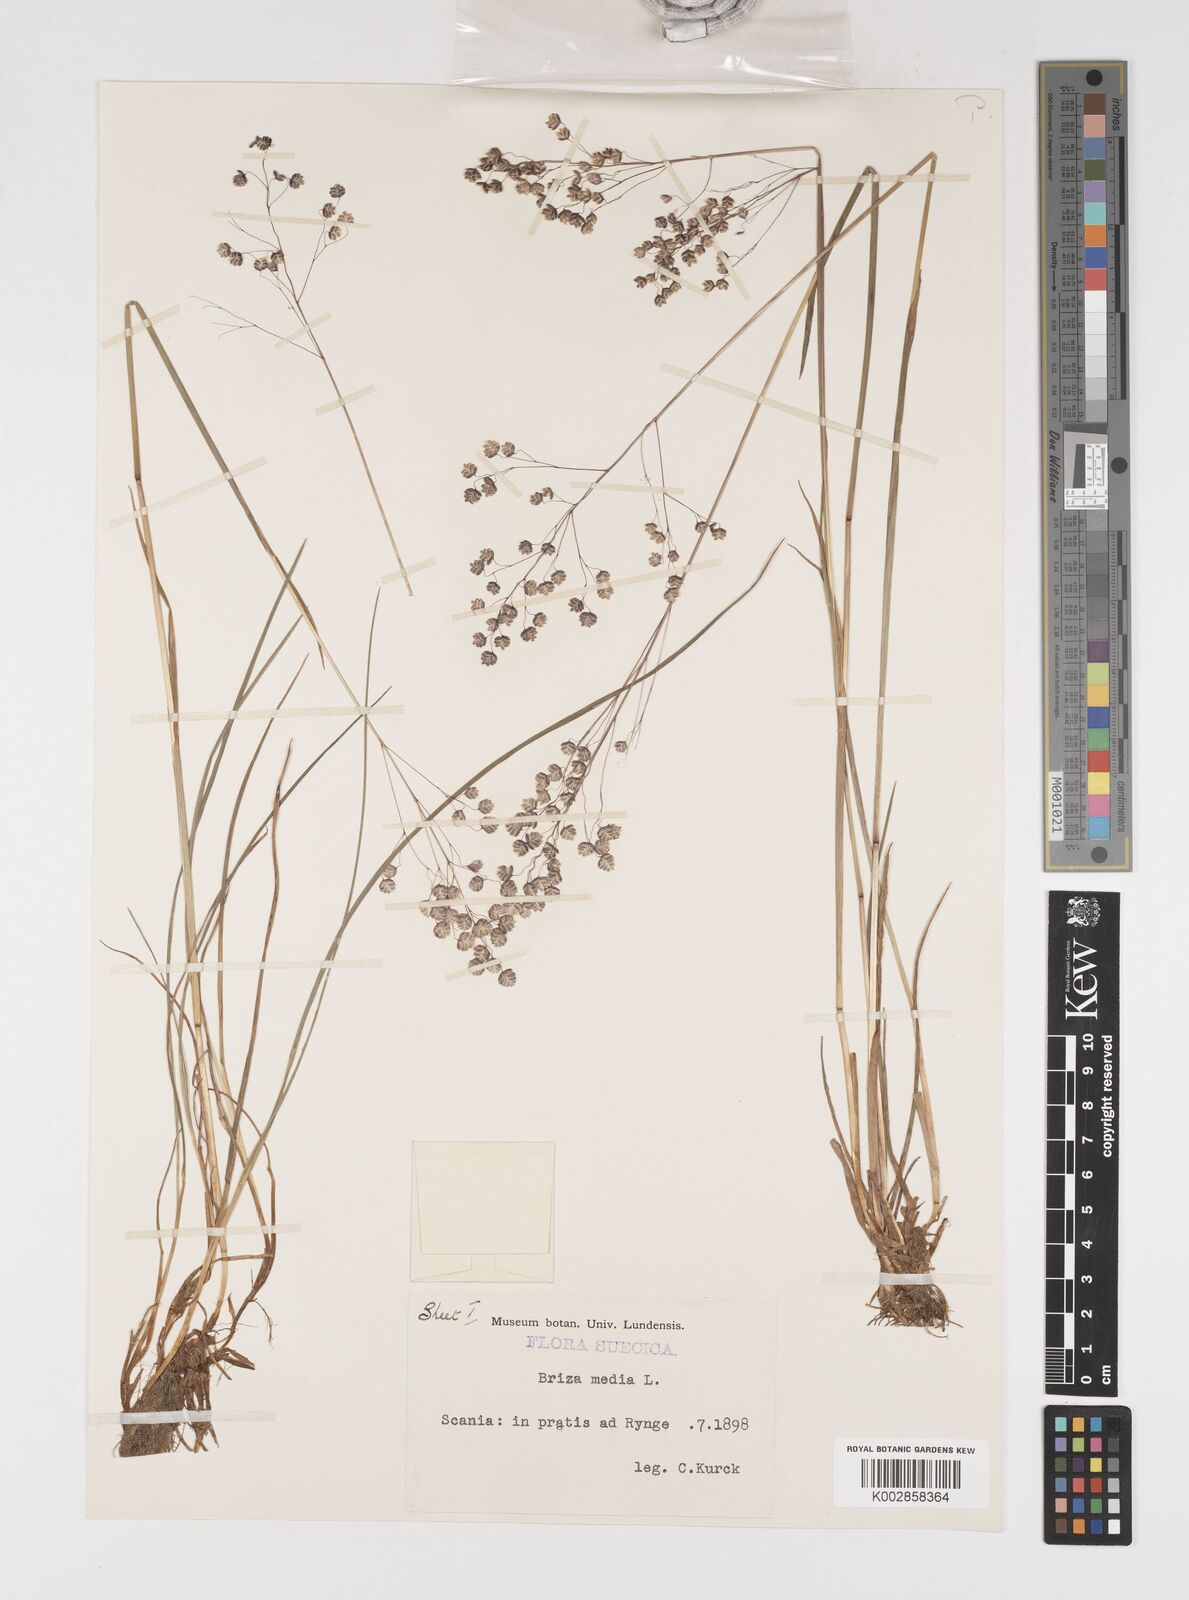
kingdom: Plantae
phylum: Tracheophyta
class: Liliopsida
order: Poales
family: Poaceae
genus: Briza
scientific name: Briza media
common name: Quaking grass
